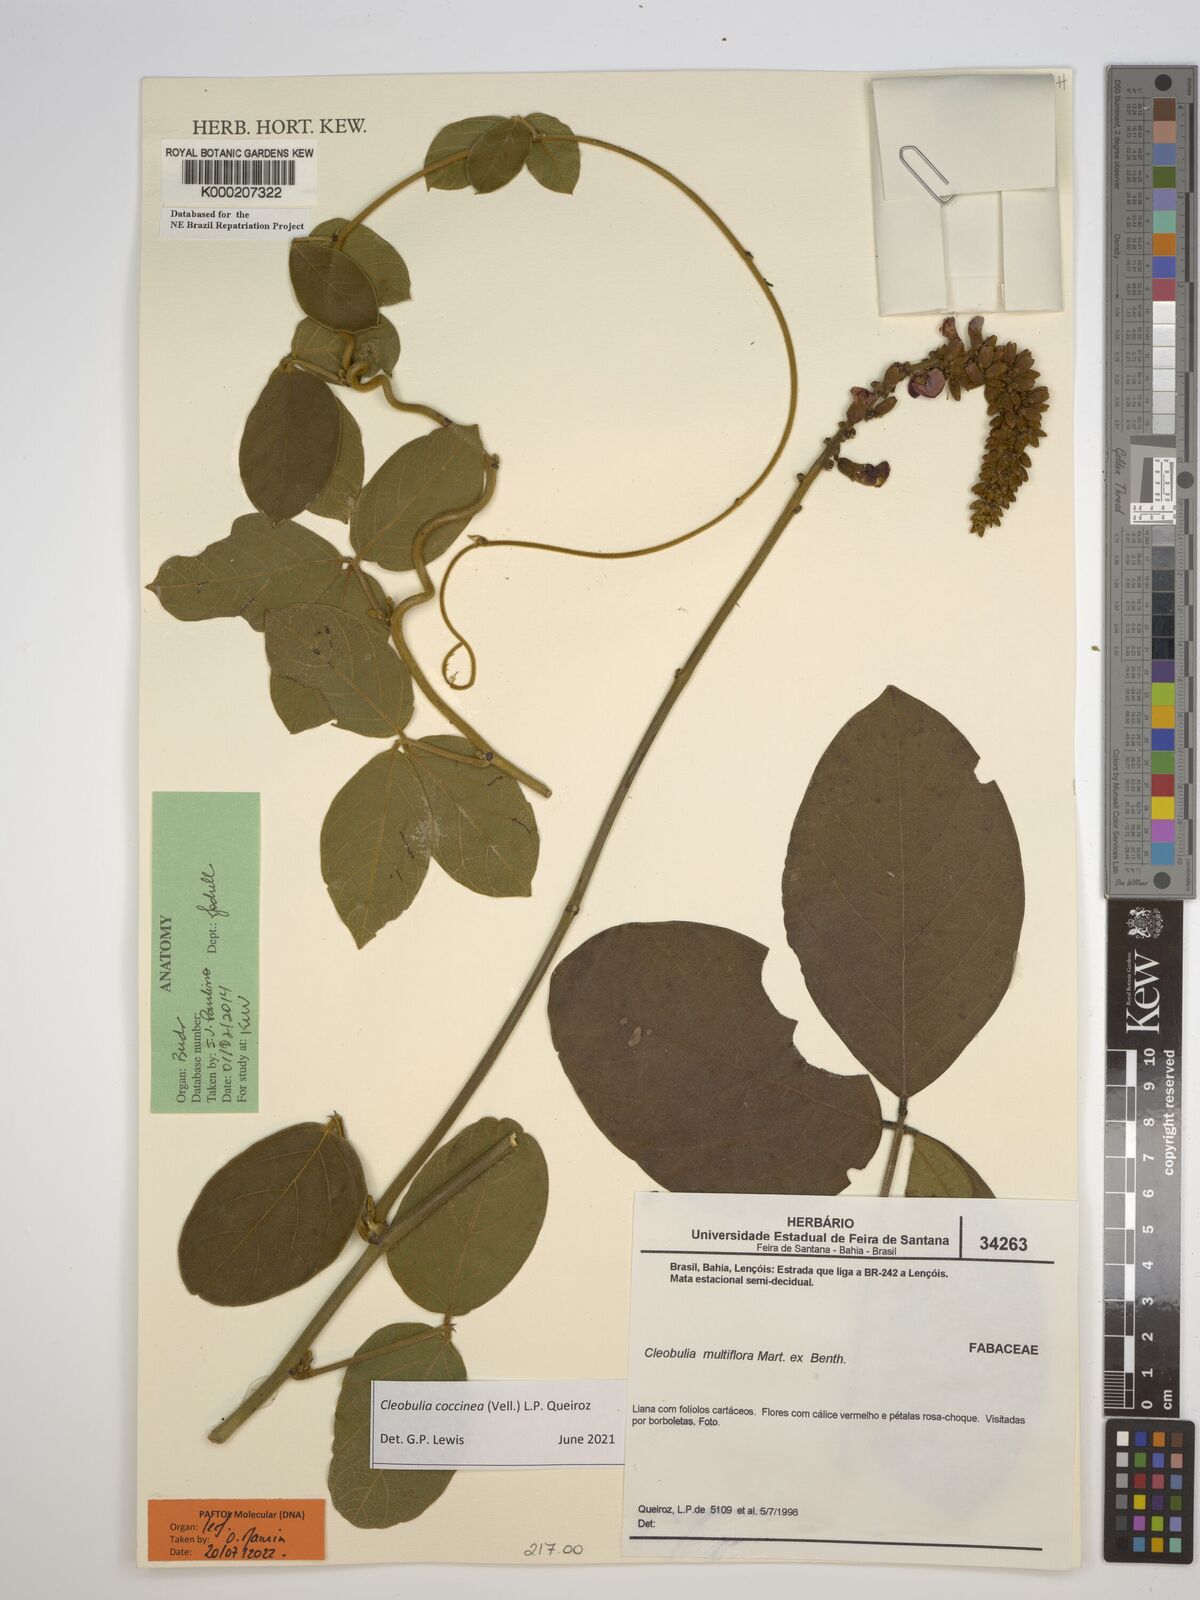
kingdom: Plantae
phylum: Tracheophyta
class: Magnoliopsida
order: Fabales
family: Fabaceae
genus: Cleobulia
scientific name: Cleobulia coccinea
